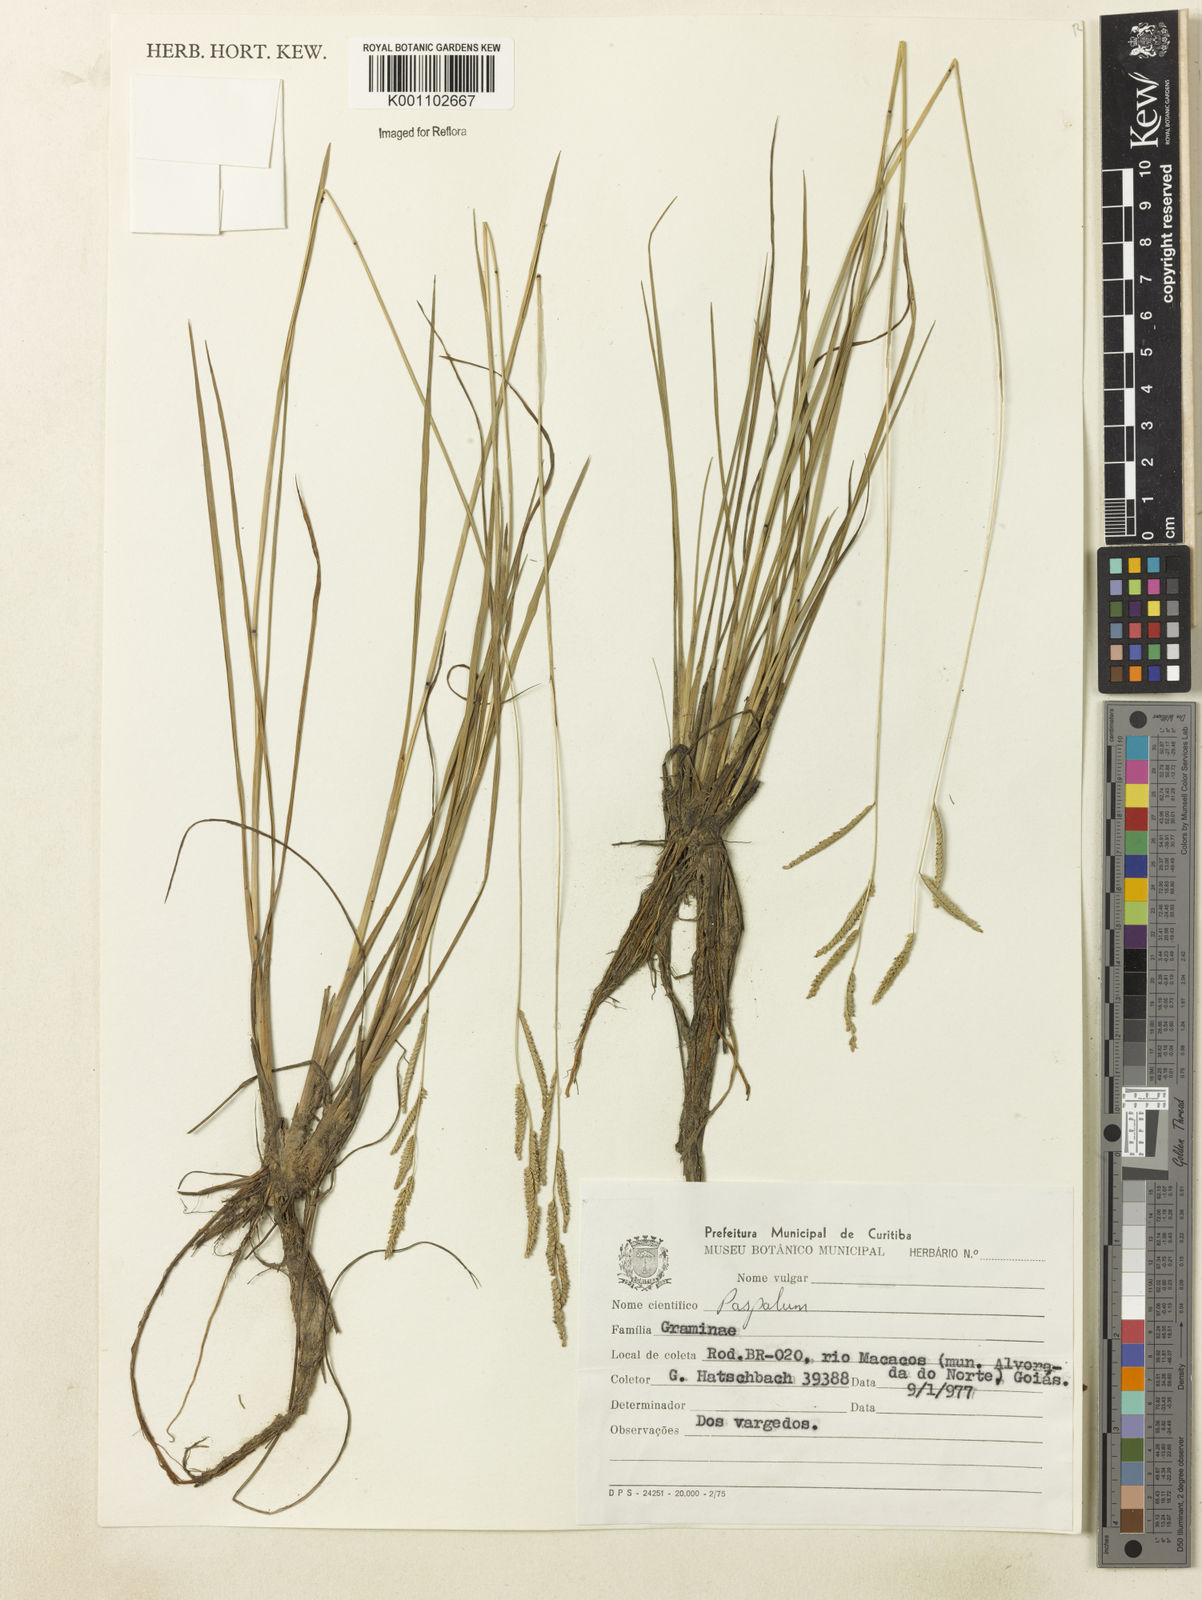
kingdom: Plantae
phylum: Tracheophyta
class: Liliopsida
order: Poales
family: Poaceae
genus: Paspalum
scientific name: Paspalum
